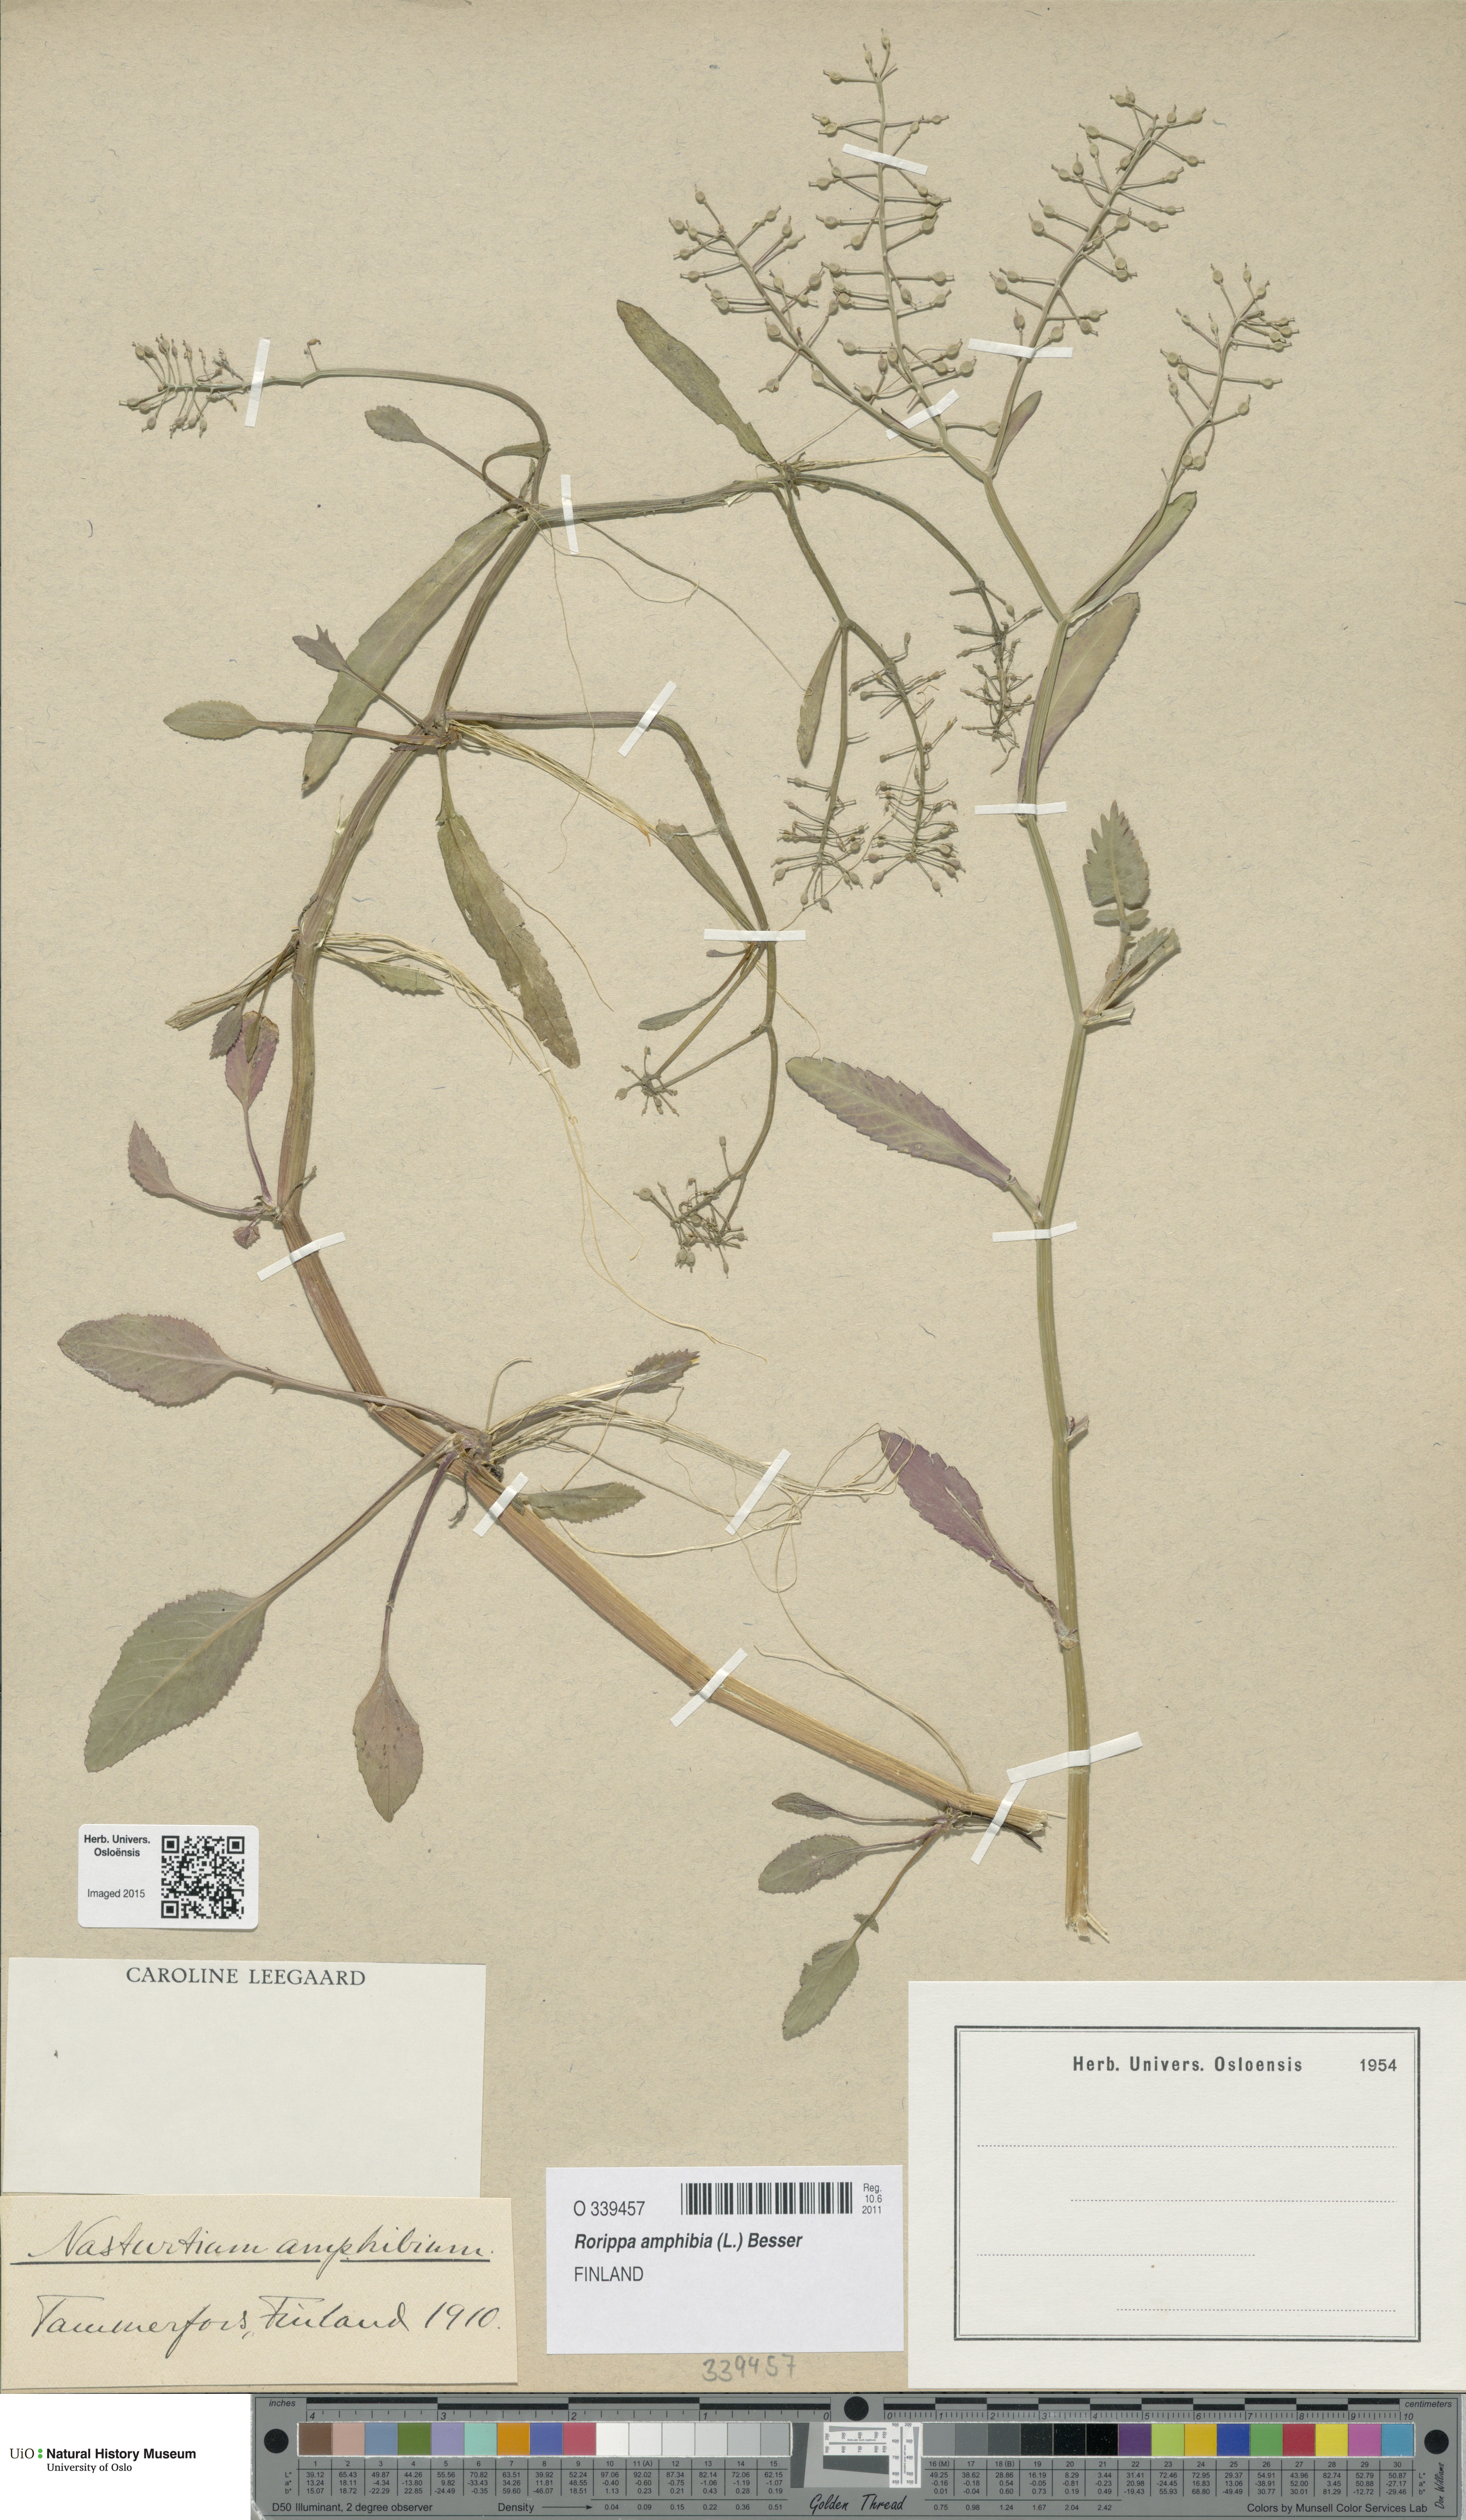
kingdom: Plantae
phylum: Tracheophyta
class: Magnoliopsida
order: Brassicales
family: Brassicaceae
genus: Rorippa
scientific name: Rorippa amphibia
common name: Great yellow-cress
